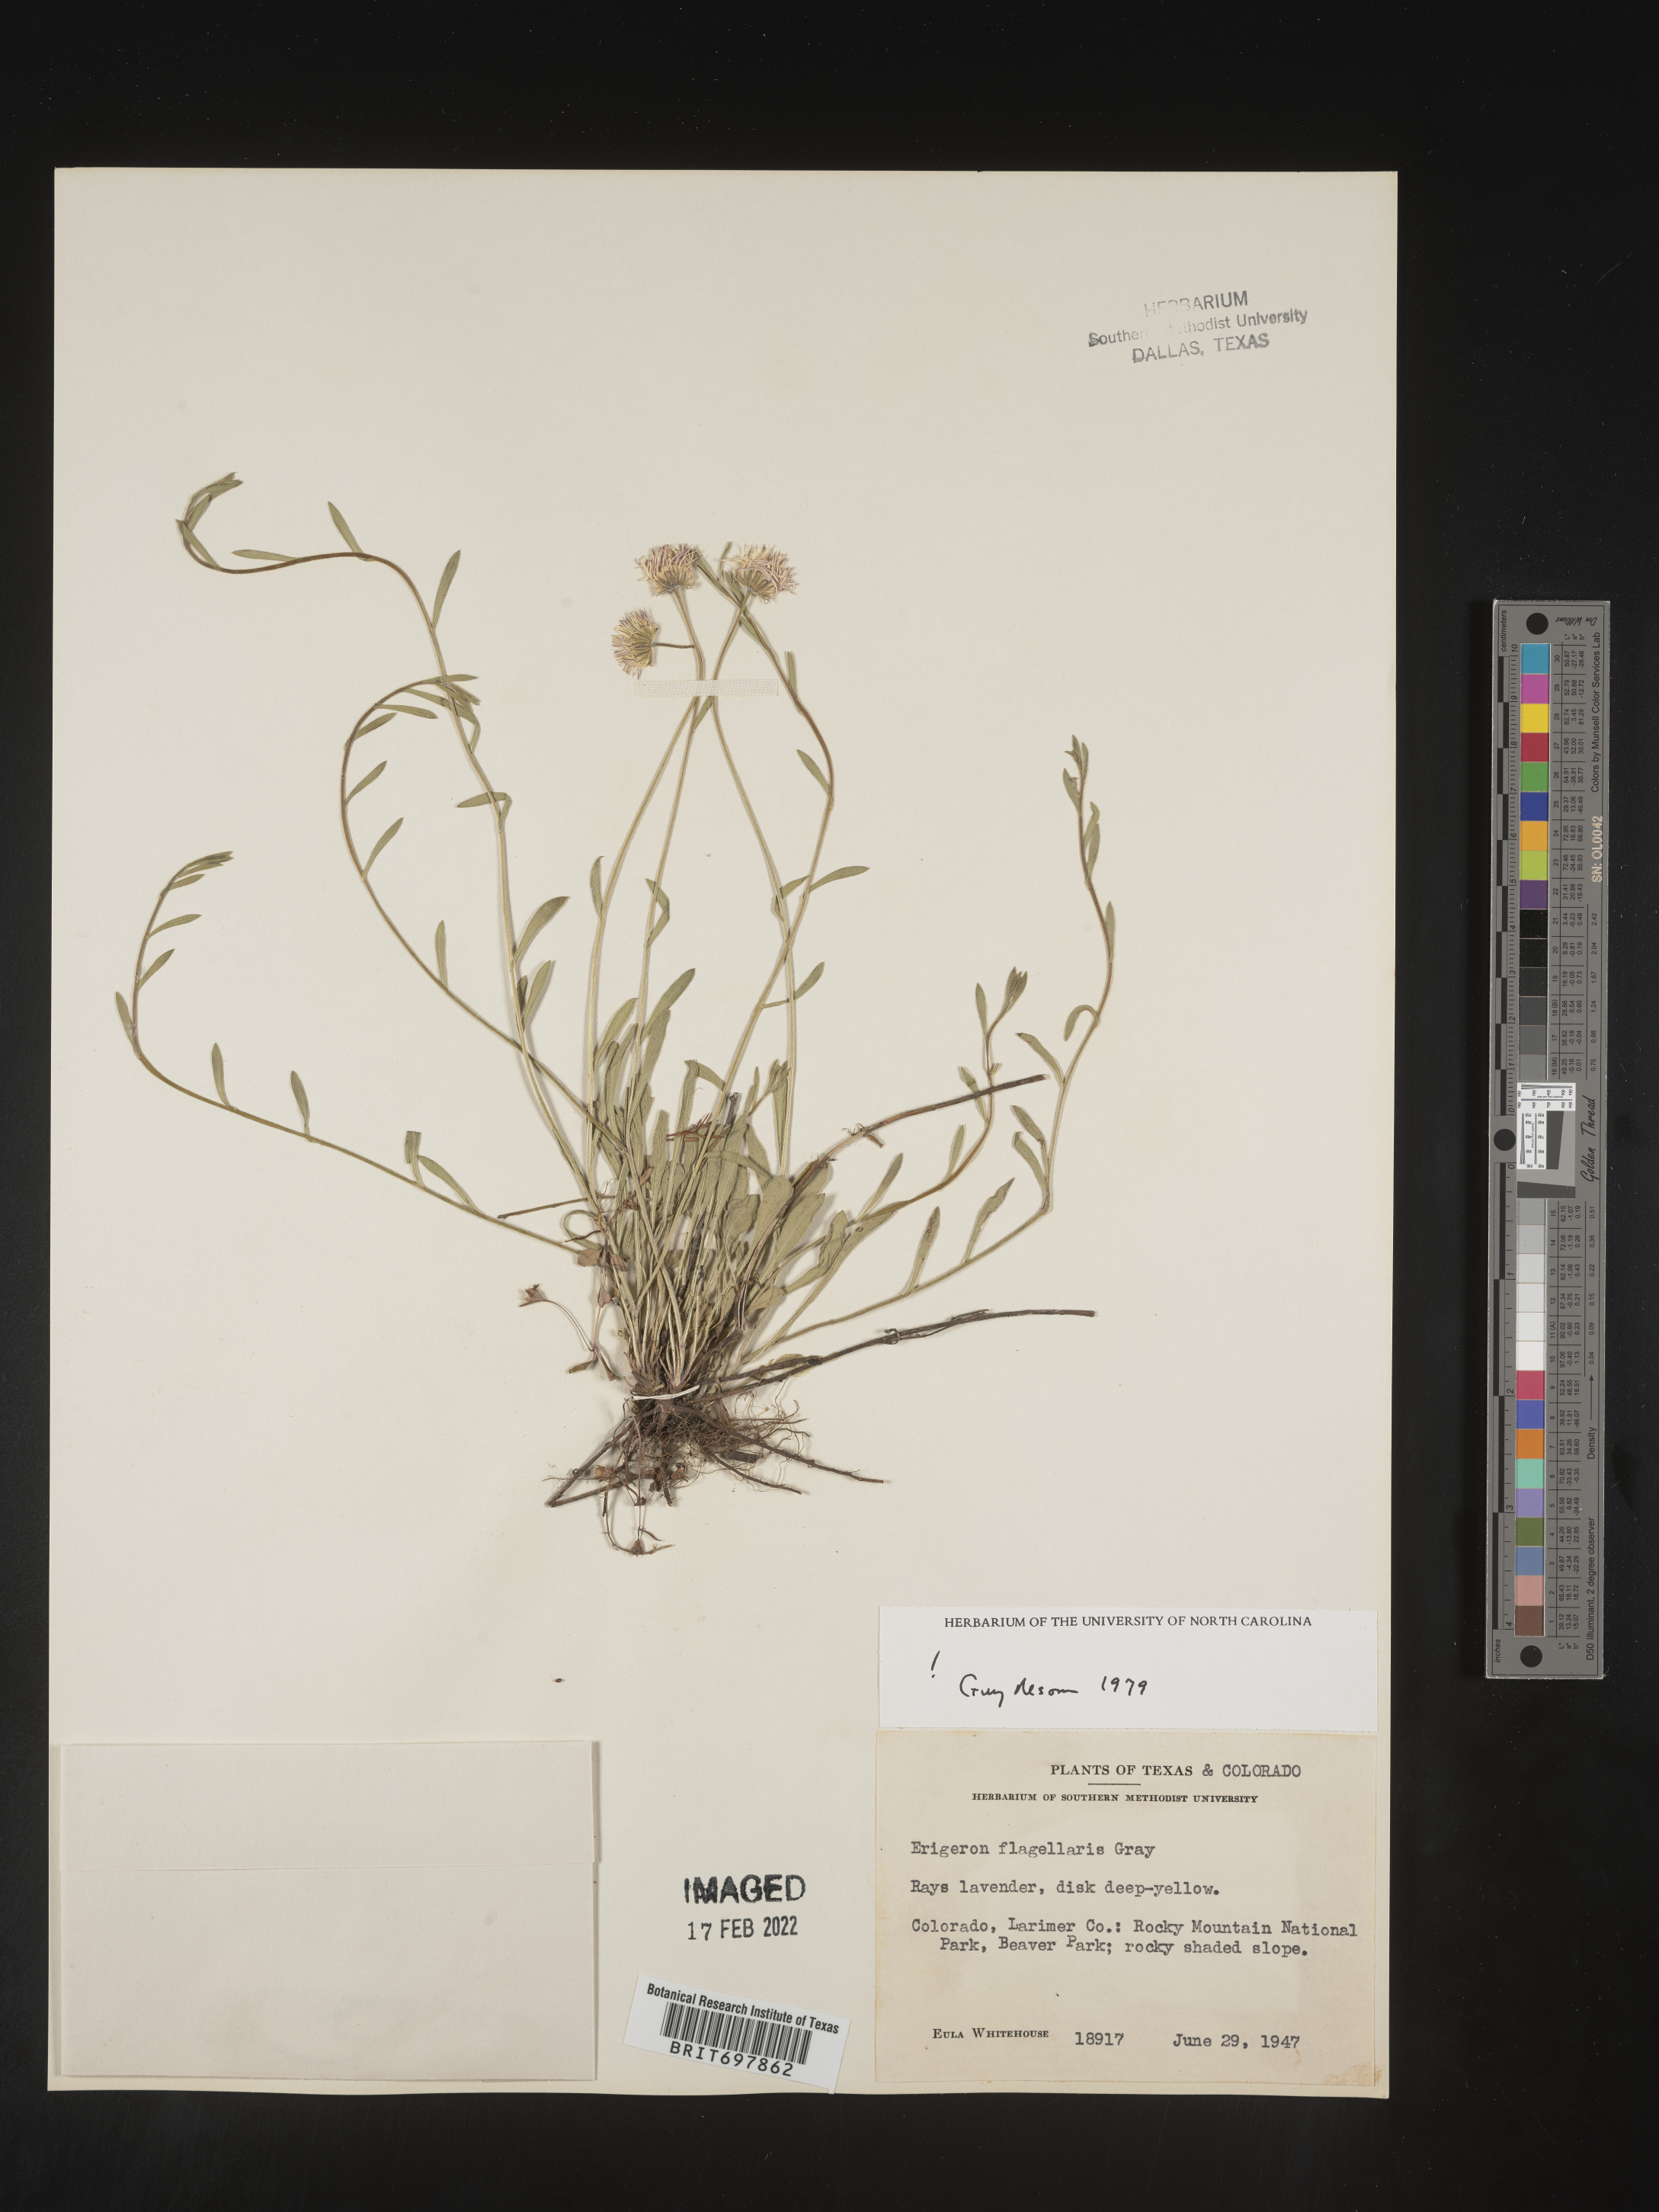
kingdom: Plantae
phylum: Tracheophyta
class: Magnoliopsida
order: Asterales
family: Asteraceae
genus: Erigeron
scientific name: Erigeron flagellaris
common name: Running fleabane
